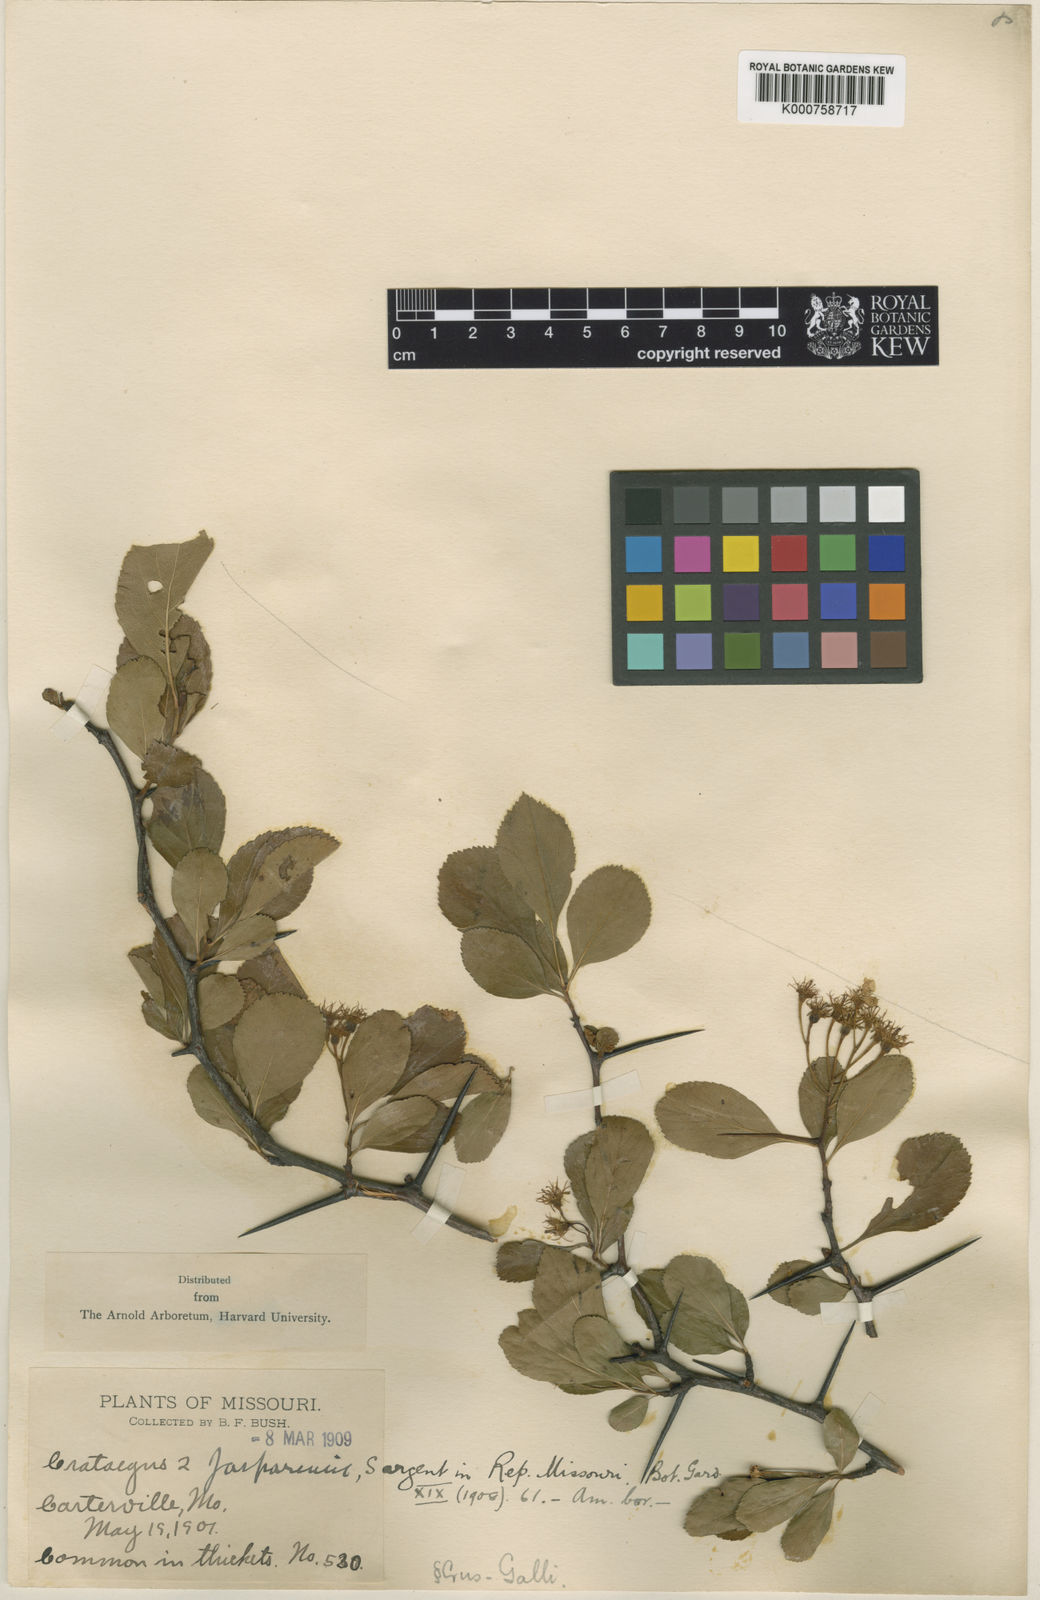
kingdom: Plantae
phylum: Tracheophyta
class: Magnoliopsida
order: Rosales
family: Rosaceae
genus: Crataegus
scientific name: Crataegus jasperensis
